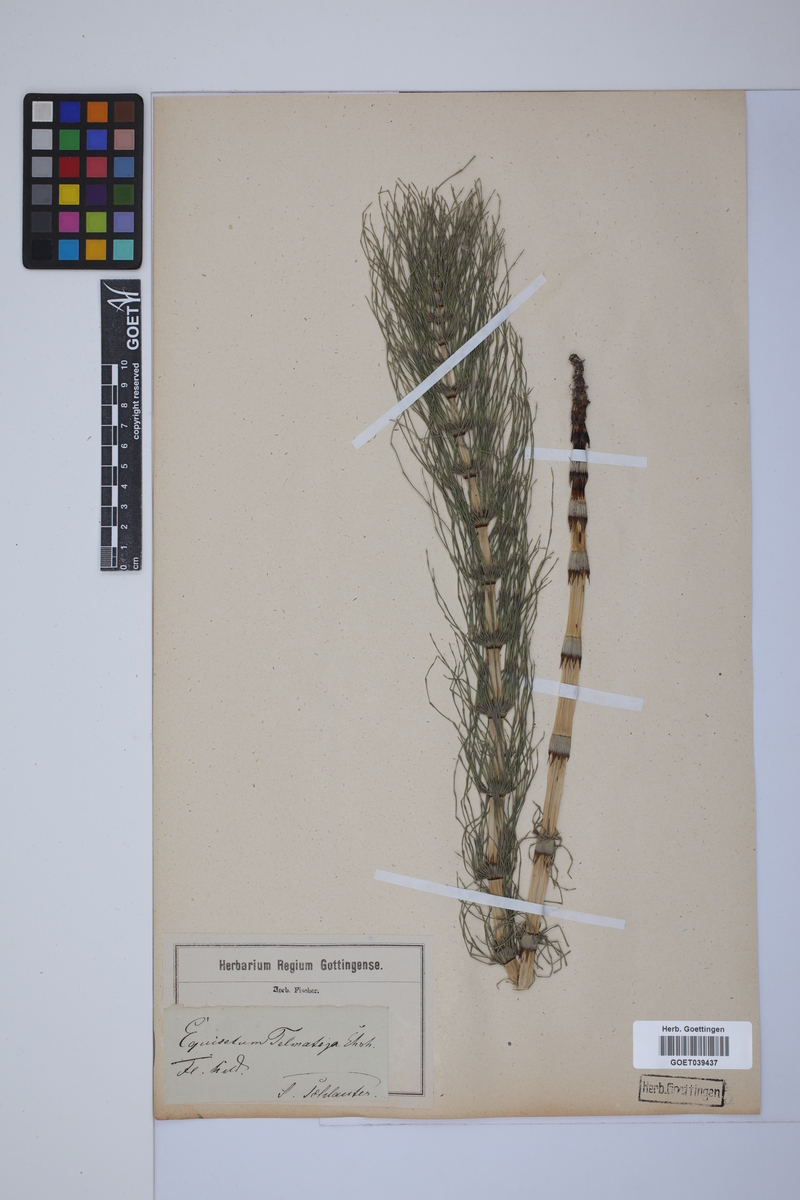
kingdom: Plantae
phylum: Tracheophyta
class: Polypodiopsida
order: Equisetales
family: Equisetaceae
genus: Equisetum
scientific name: Equisetum telmateia
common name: Great horsetail
